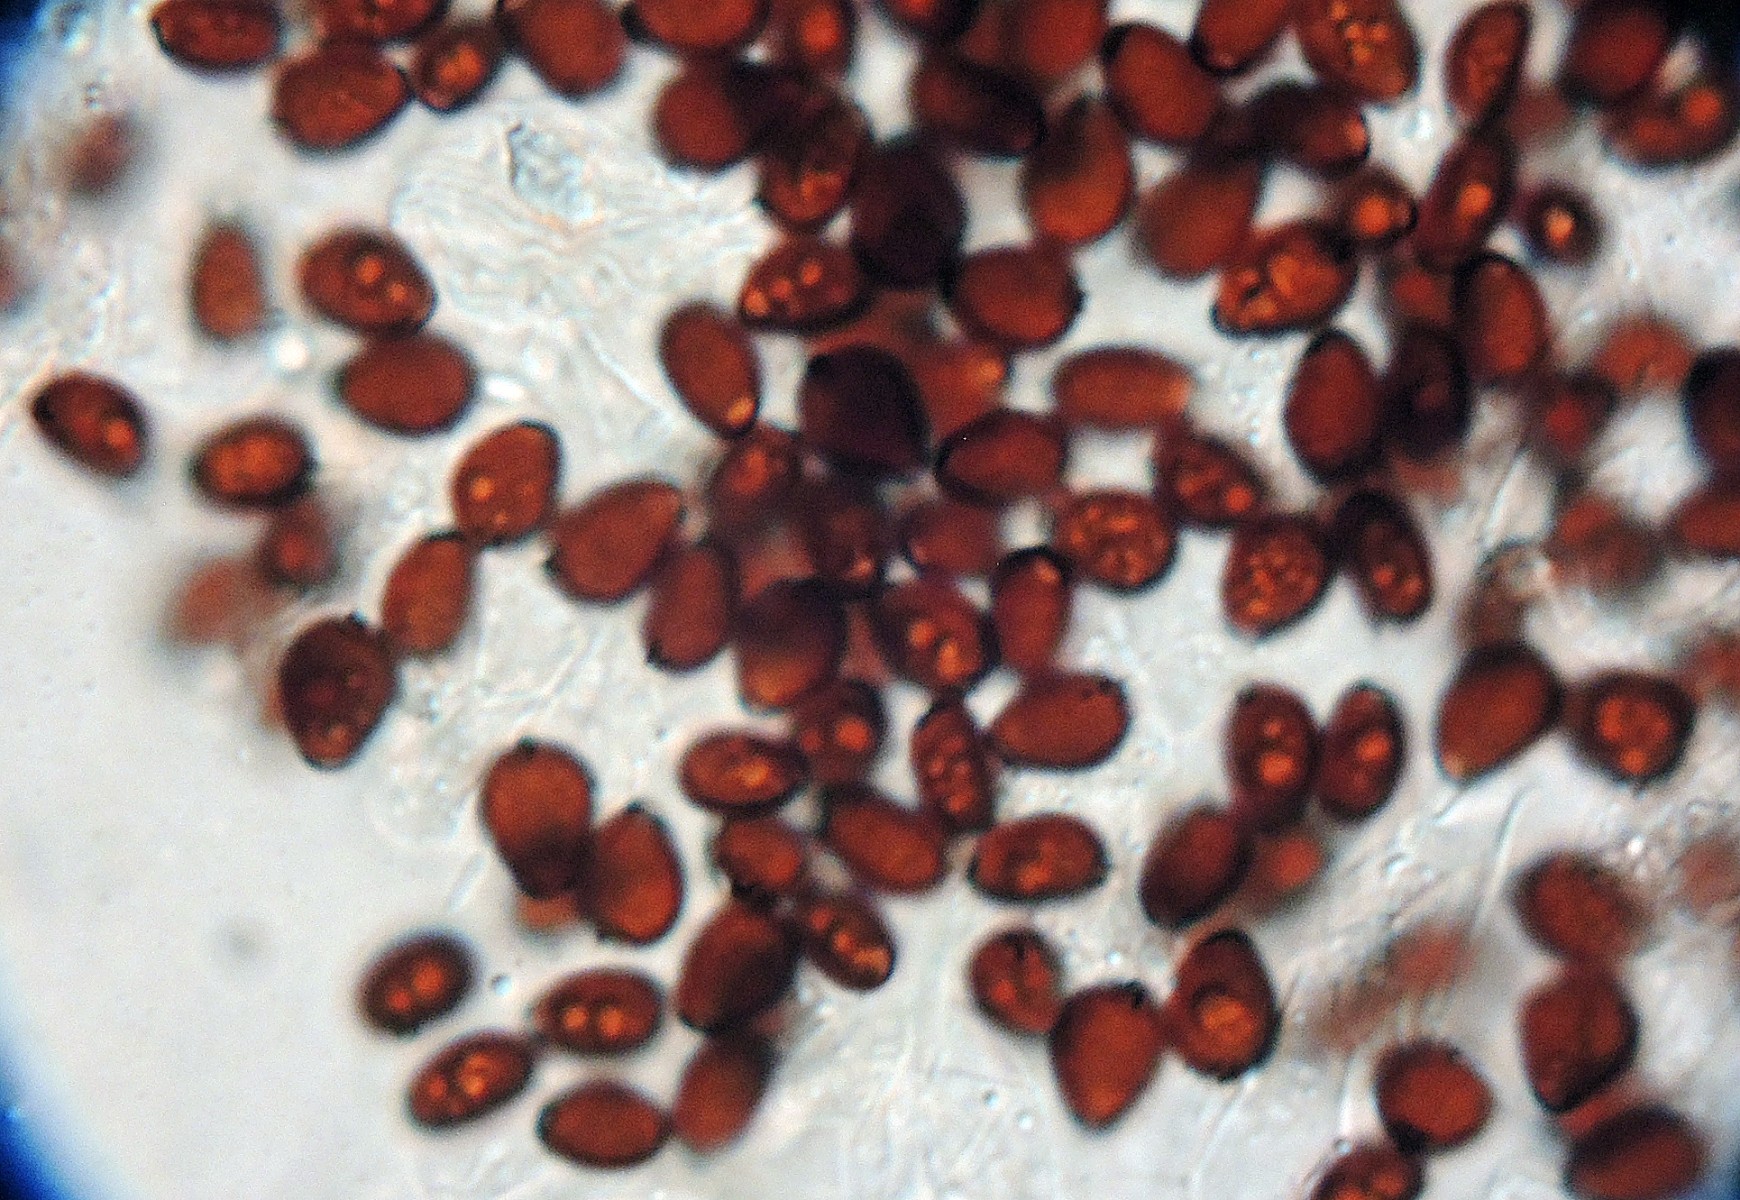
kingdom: Fungi
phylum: Basidiomycota
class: Agaricomycetes
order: Agaricales
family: Psathyrellaceae
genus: Parasola
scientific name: Parasola crataegi
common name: tjørne-hjulhat
